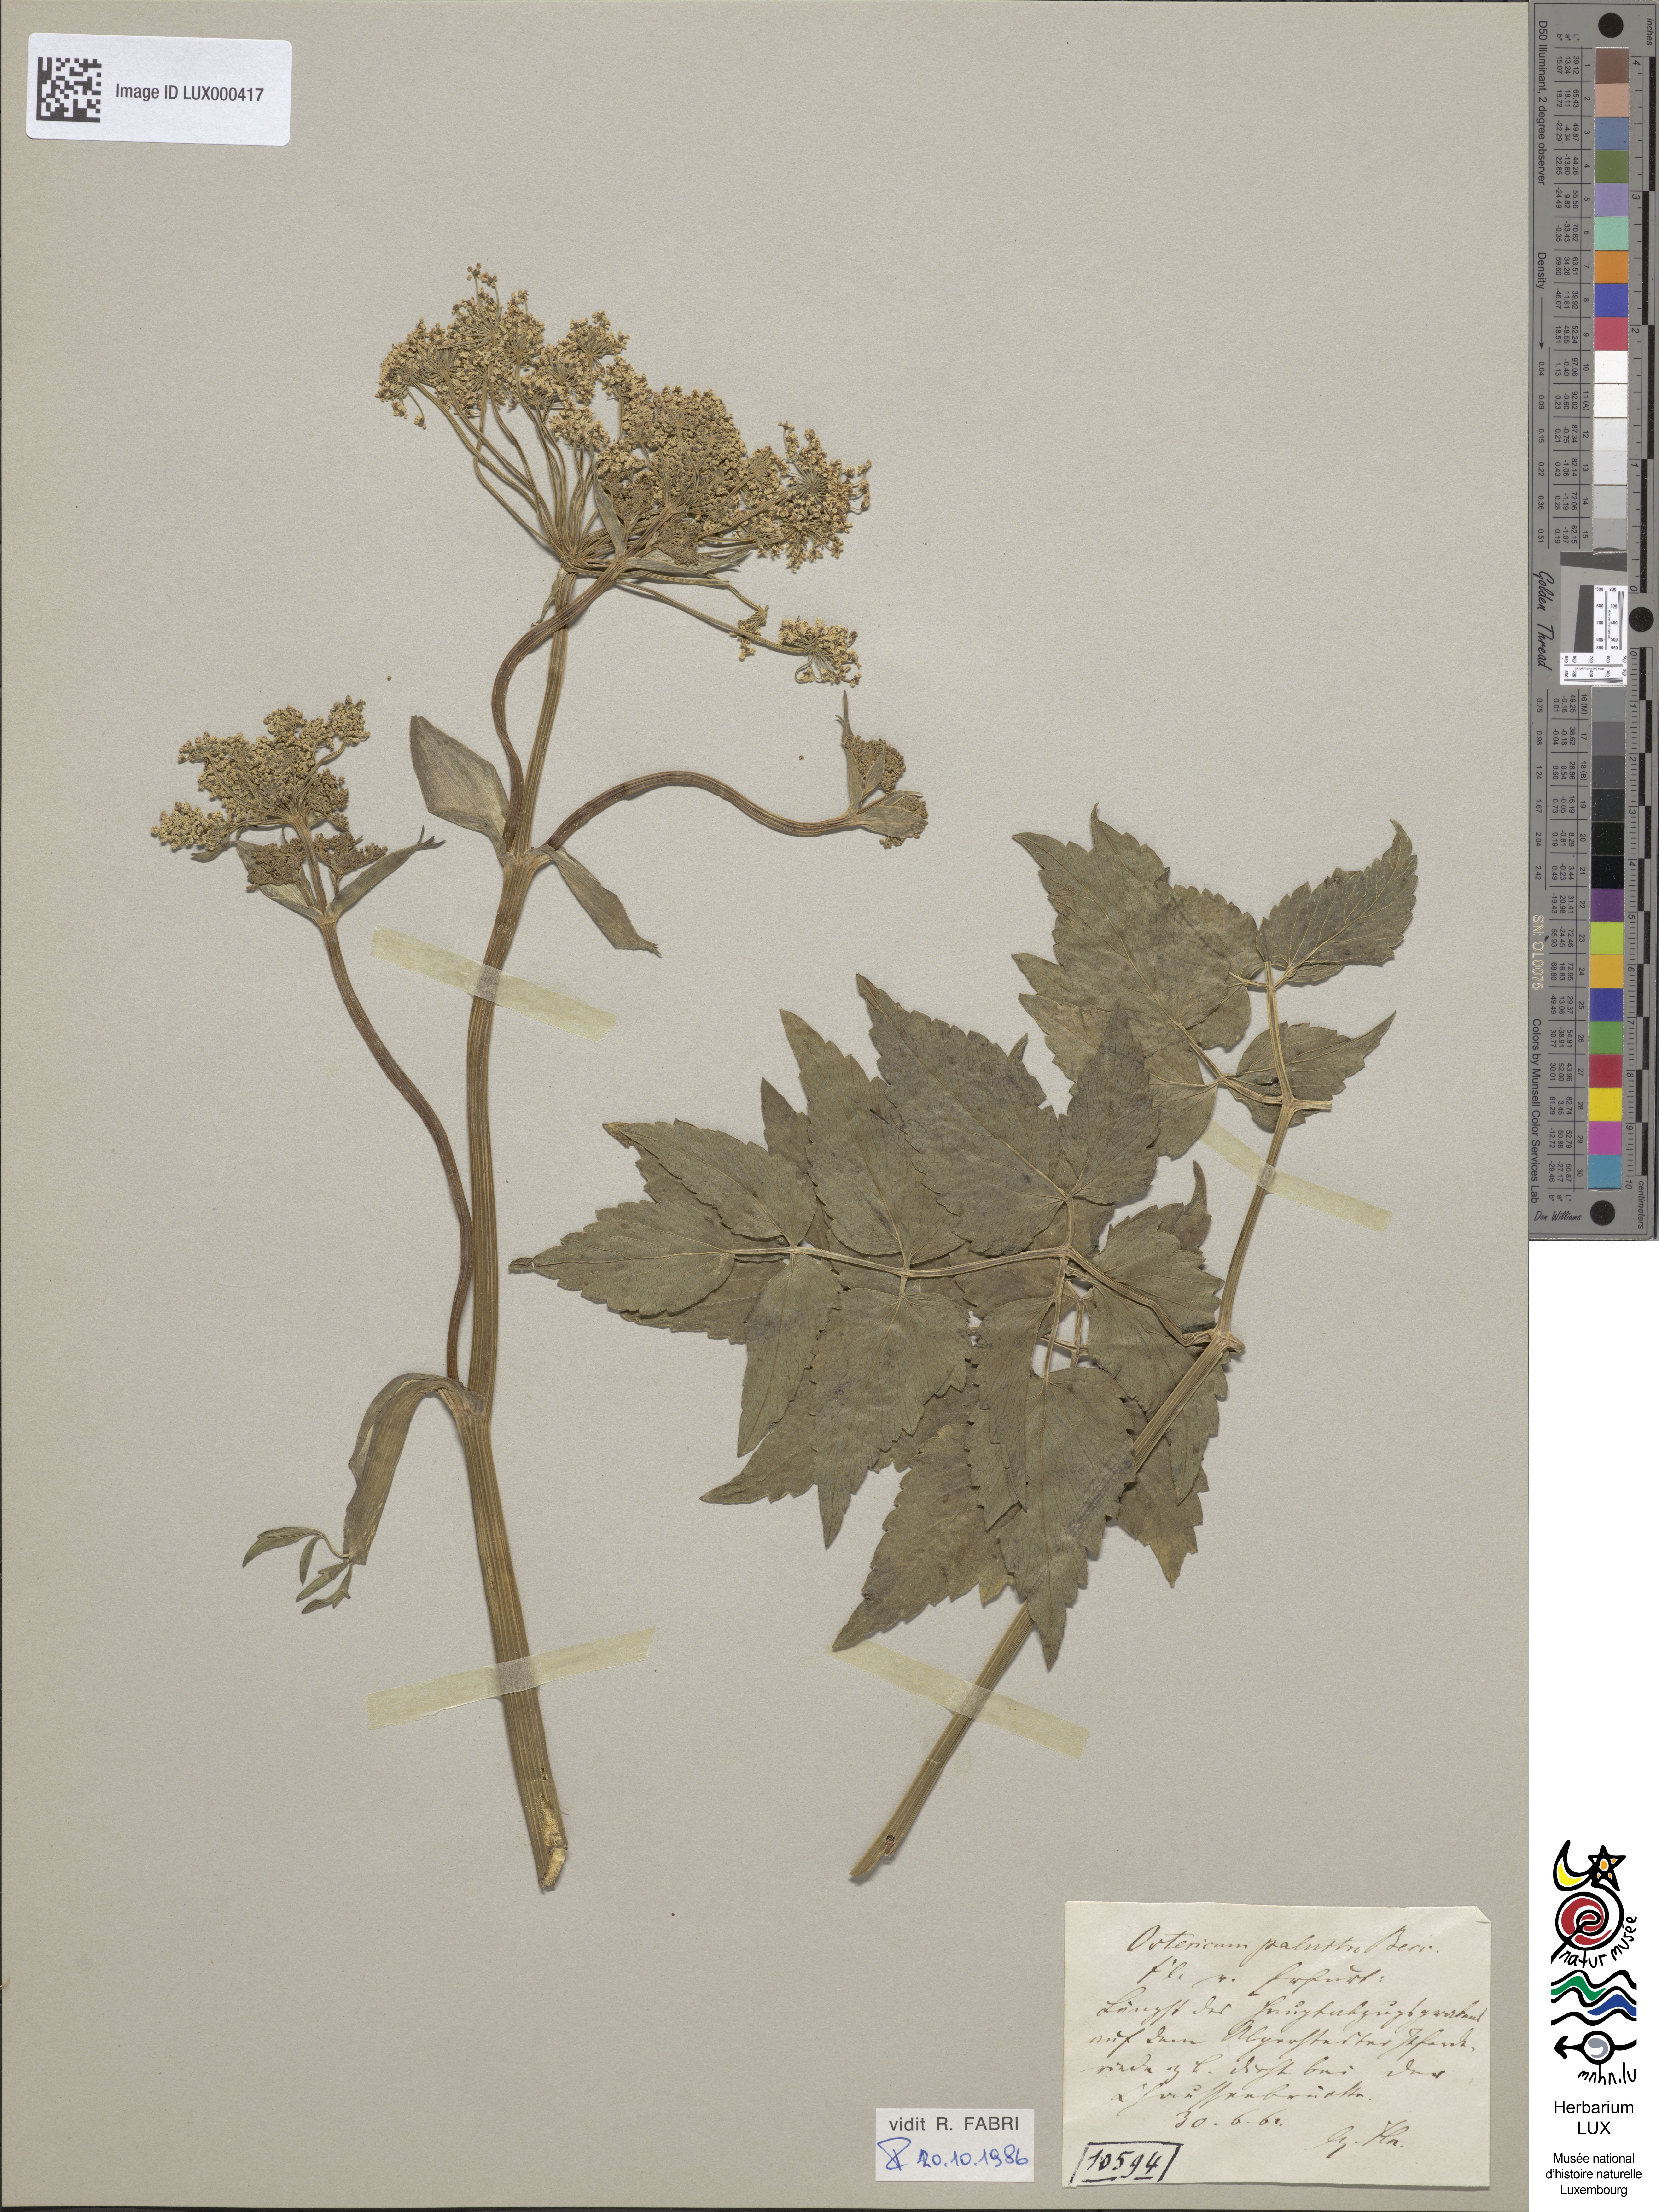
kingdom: Plantae
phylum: Tracheophyta
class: Magnoliopsida
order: Apiales
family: Apiaceae
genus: Ostericum
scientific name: Ostericum palustre
